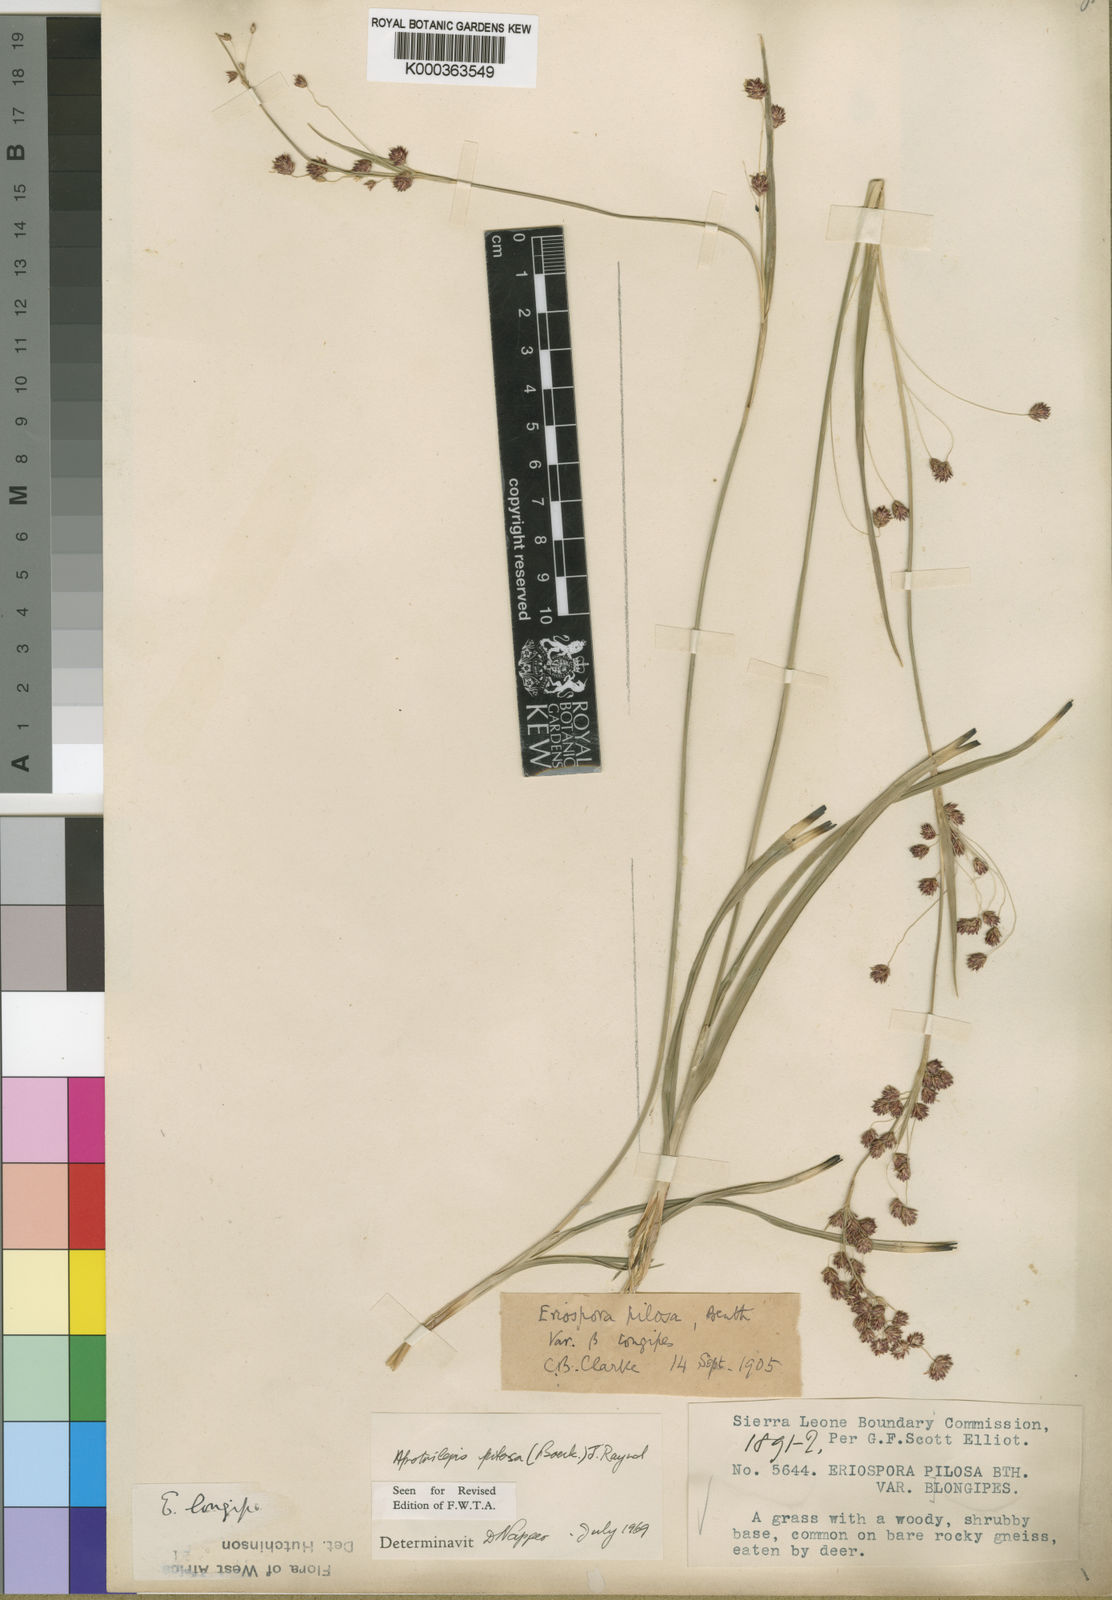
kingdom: Plantae
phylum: Tracheophyta
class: Liliopsida
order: Poales
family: Cyperaceae
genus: Afrotrilepis
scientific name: Afrotrilepis pilosa
